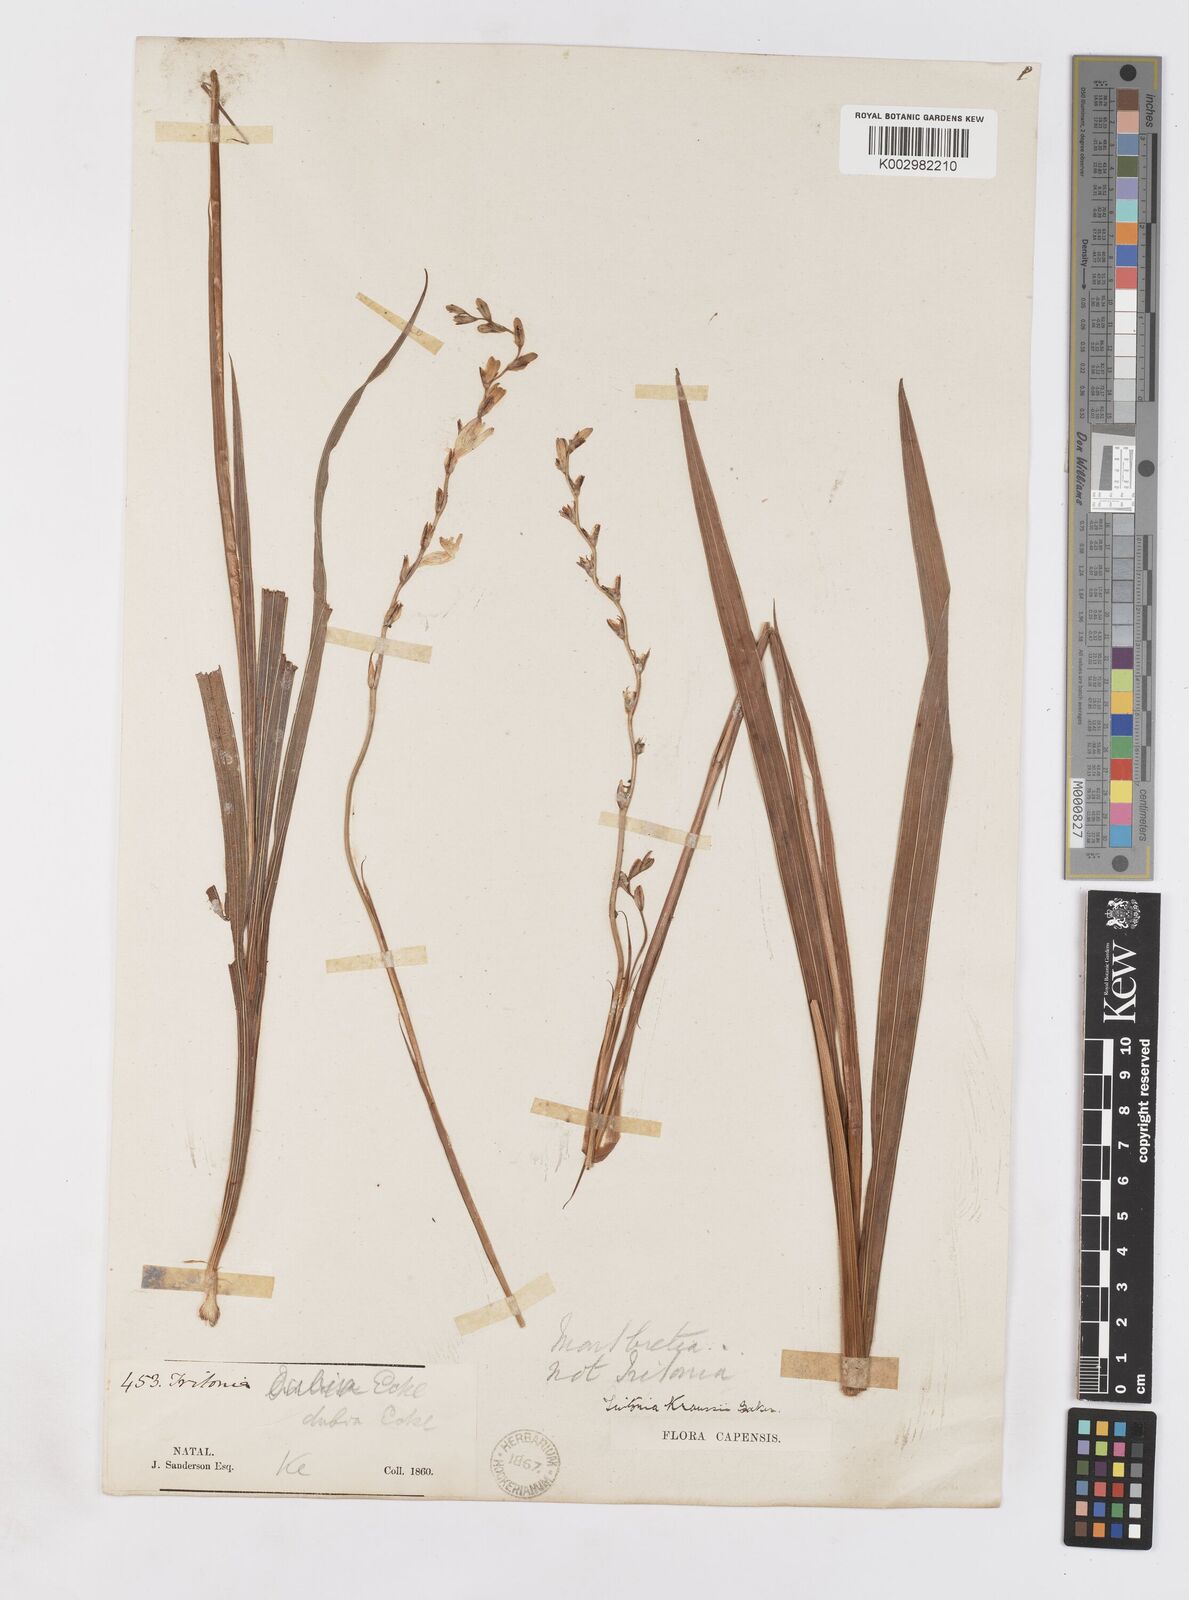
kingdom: Plantae
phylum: Tracheophyta
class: Liliopsida
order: Asparagales
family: Iridaceae
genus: Tritonia
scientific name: Tritonia
